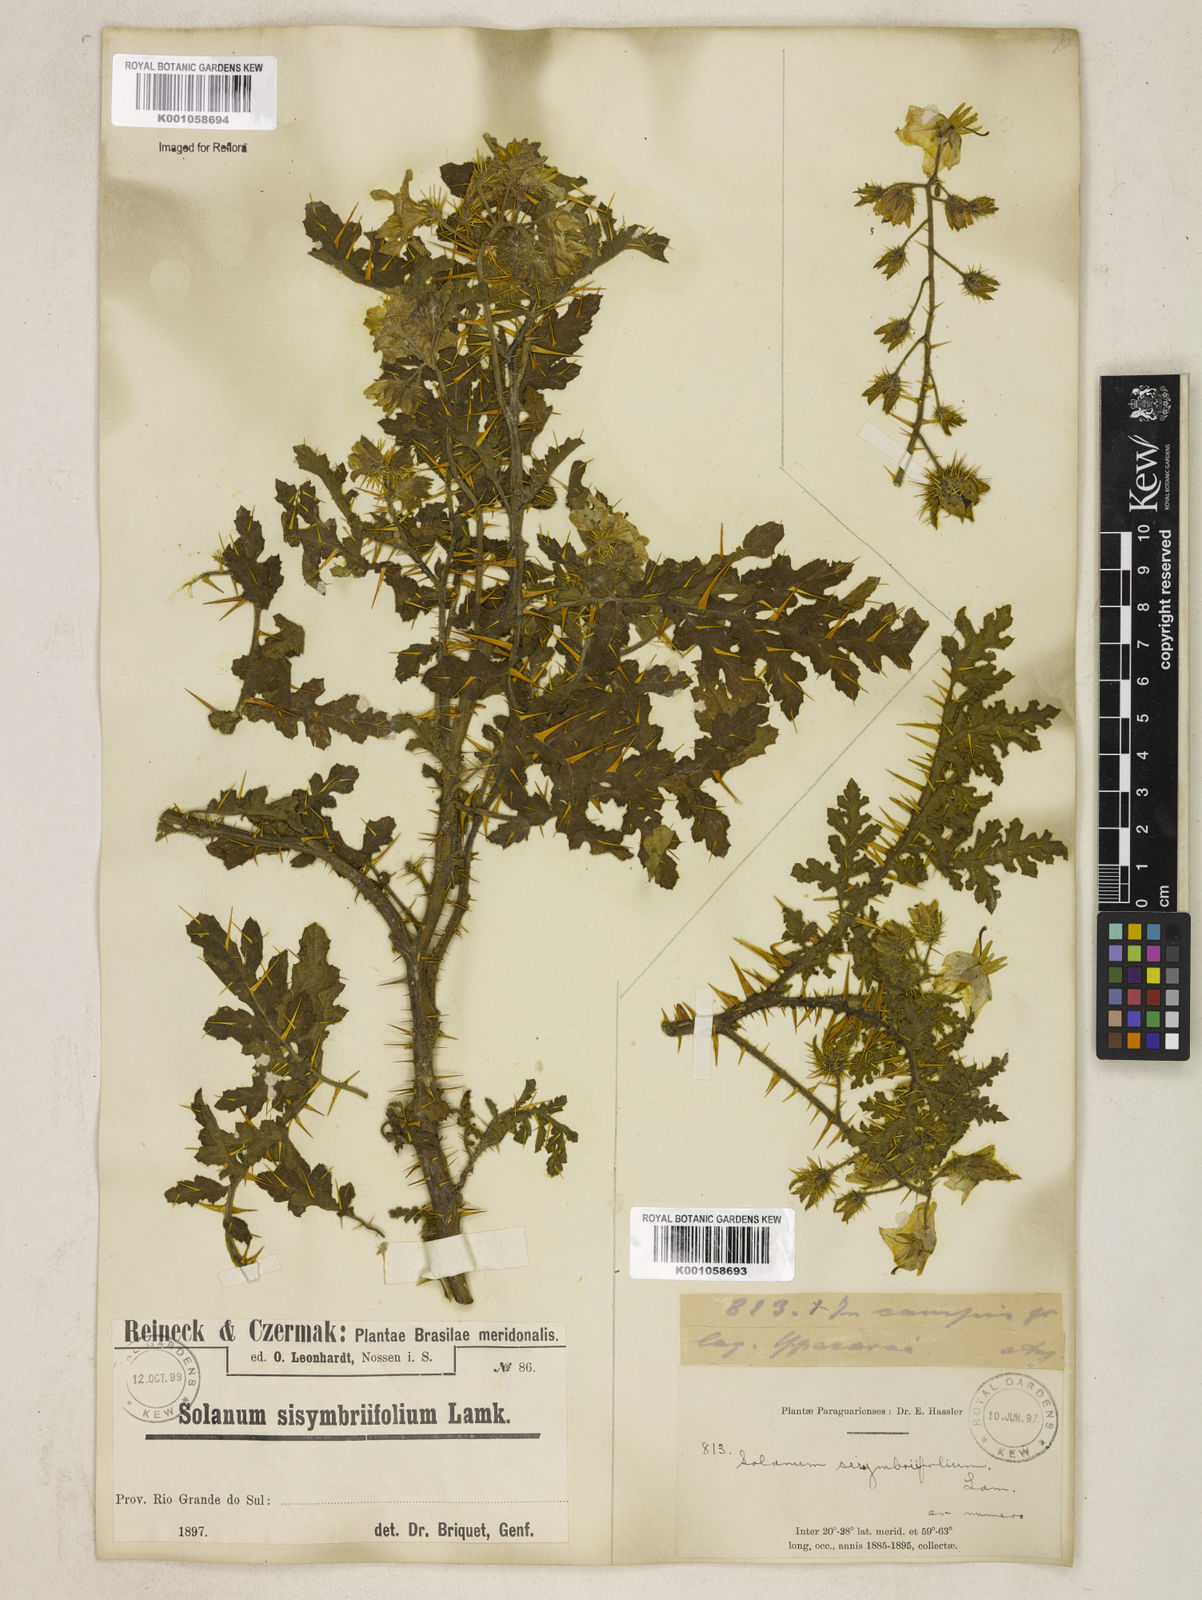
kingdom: Plantae
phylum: Tracheophyta
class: Magnoliopsida
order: Solanales
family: Solanaceae
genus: Solanum
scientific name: Solanum sisymbriifolium
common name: Red buffalo-bur
